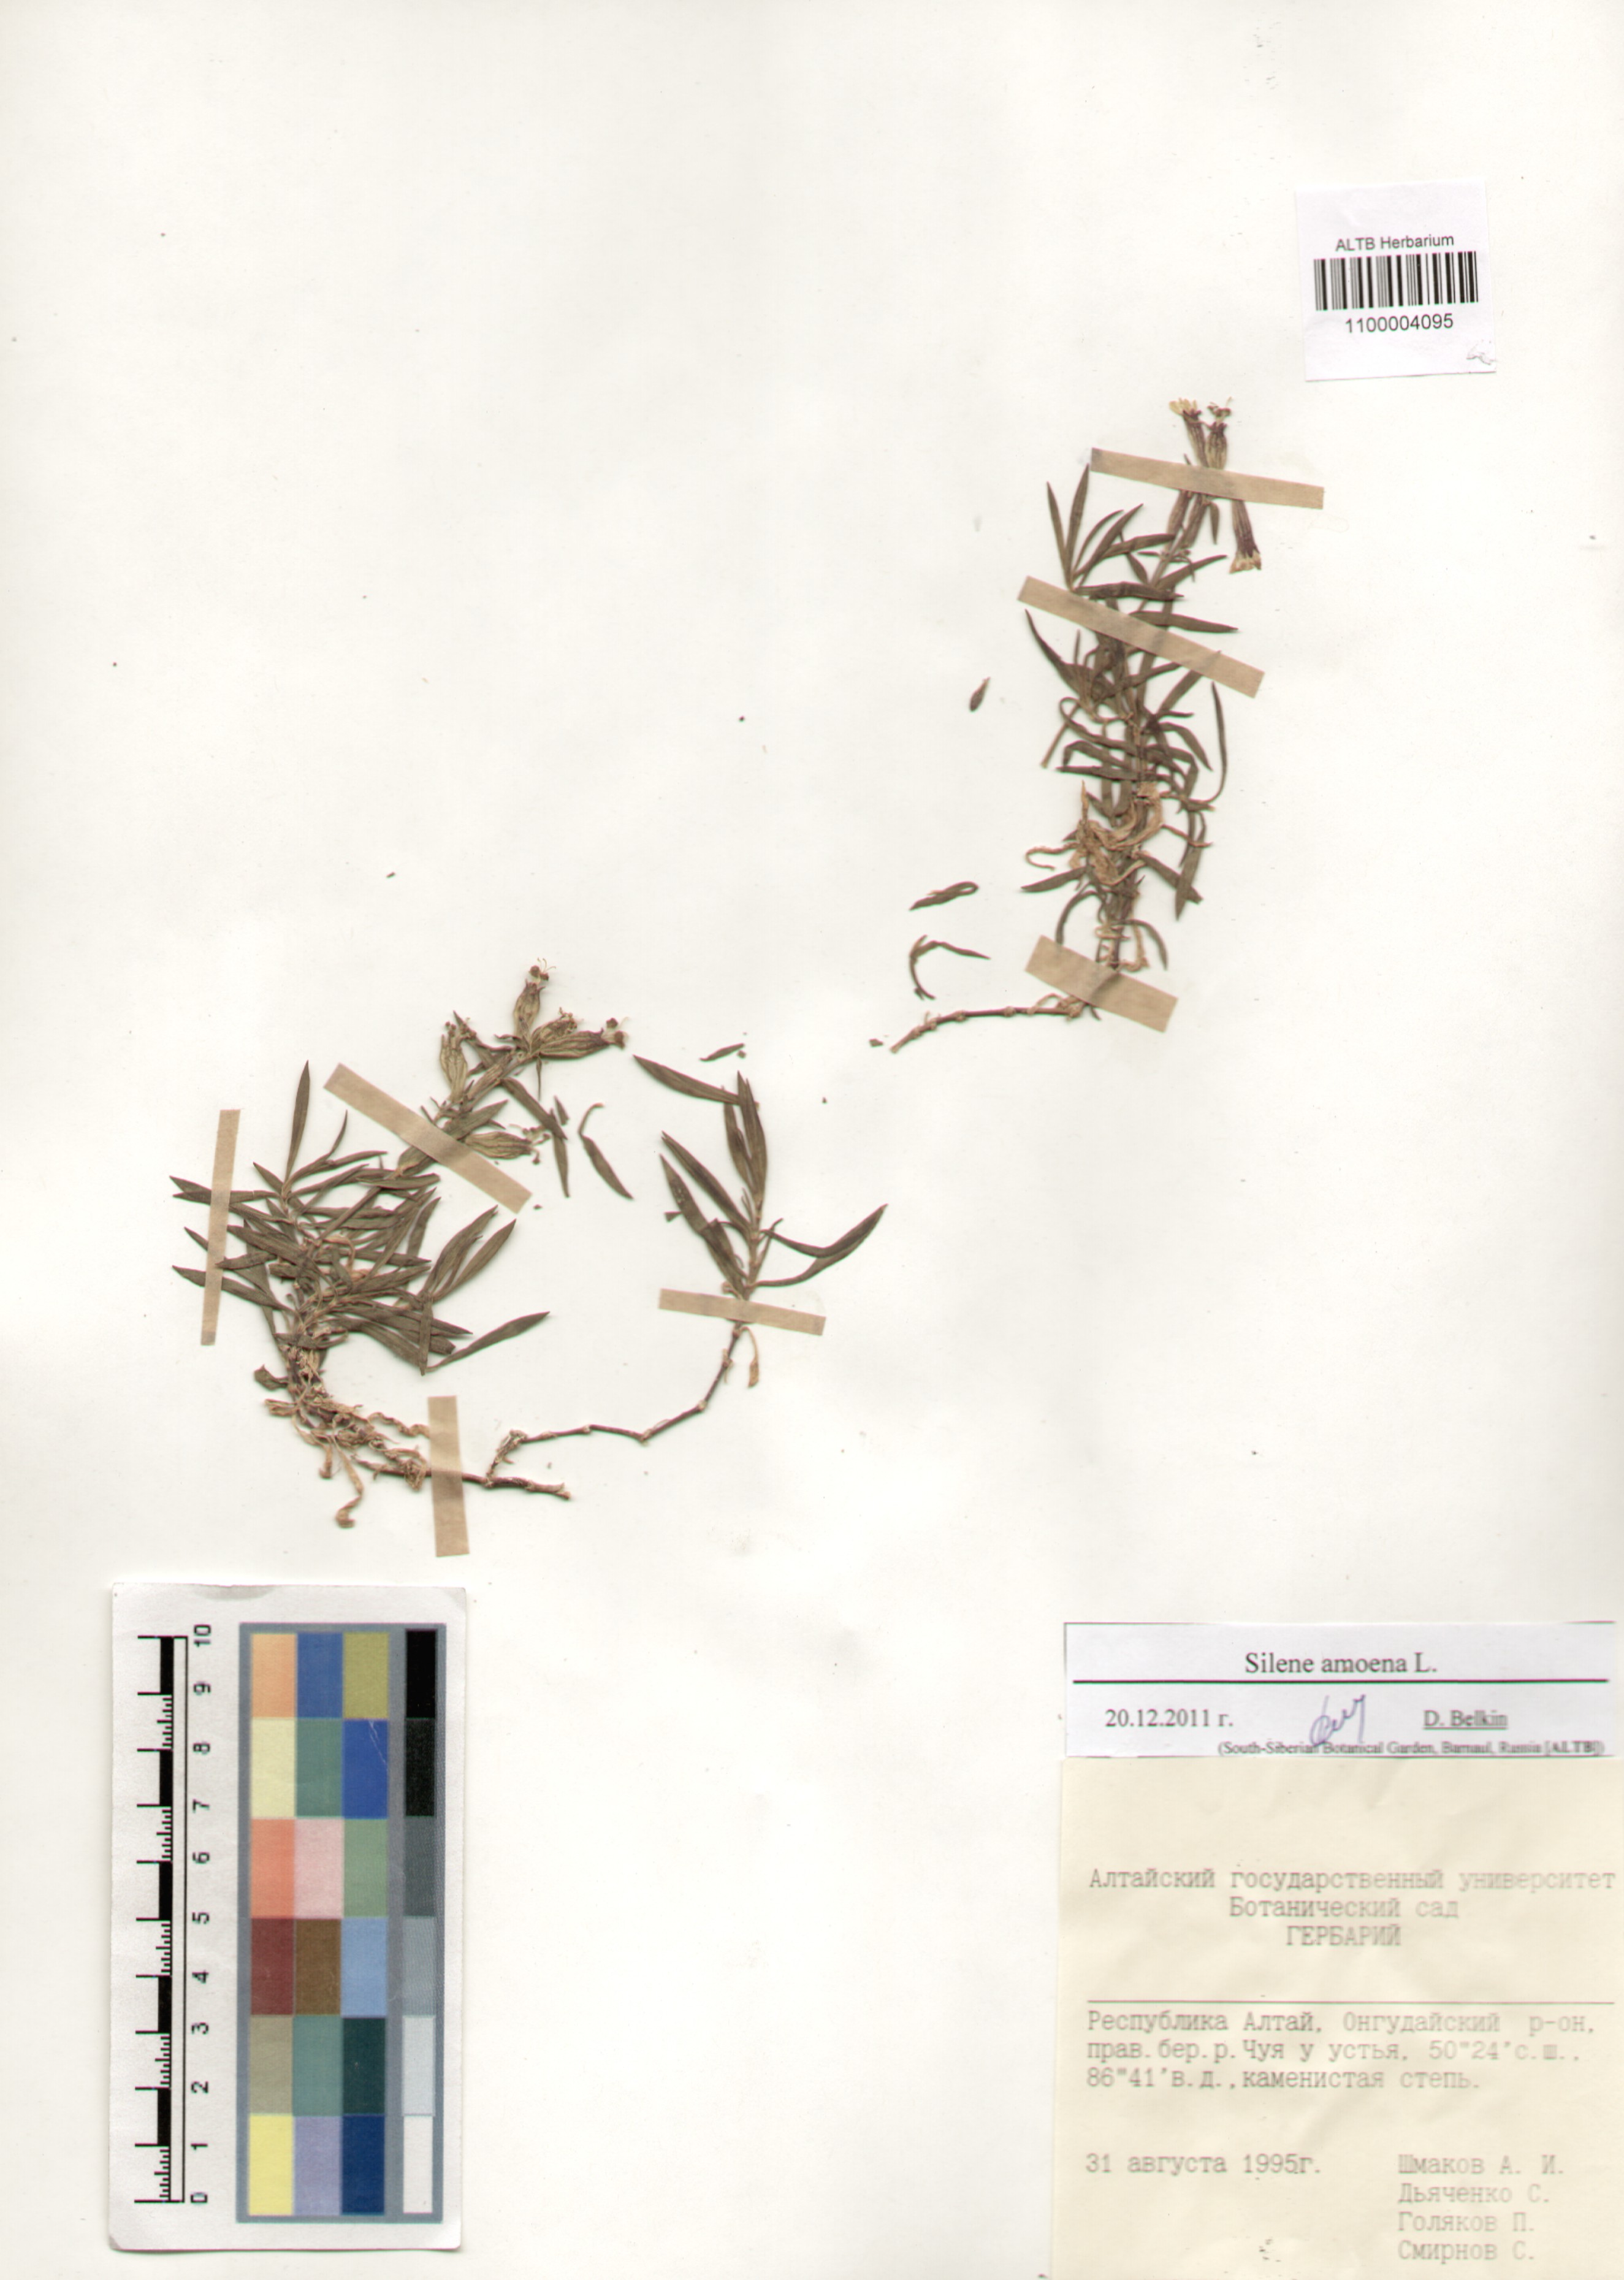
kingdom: Plantae
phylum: Tracheophyta
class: Magnoliopsida
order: Caryophyllales
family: Caryophyllaceae
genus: Silene
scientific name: Silene amoena
